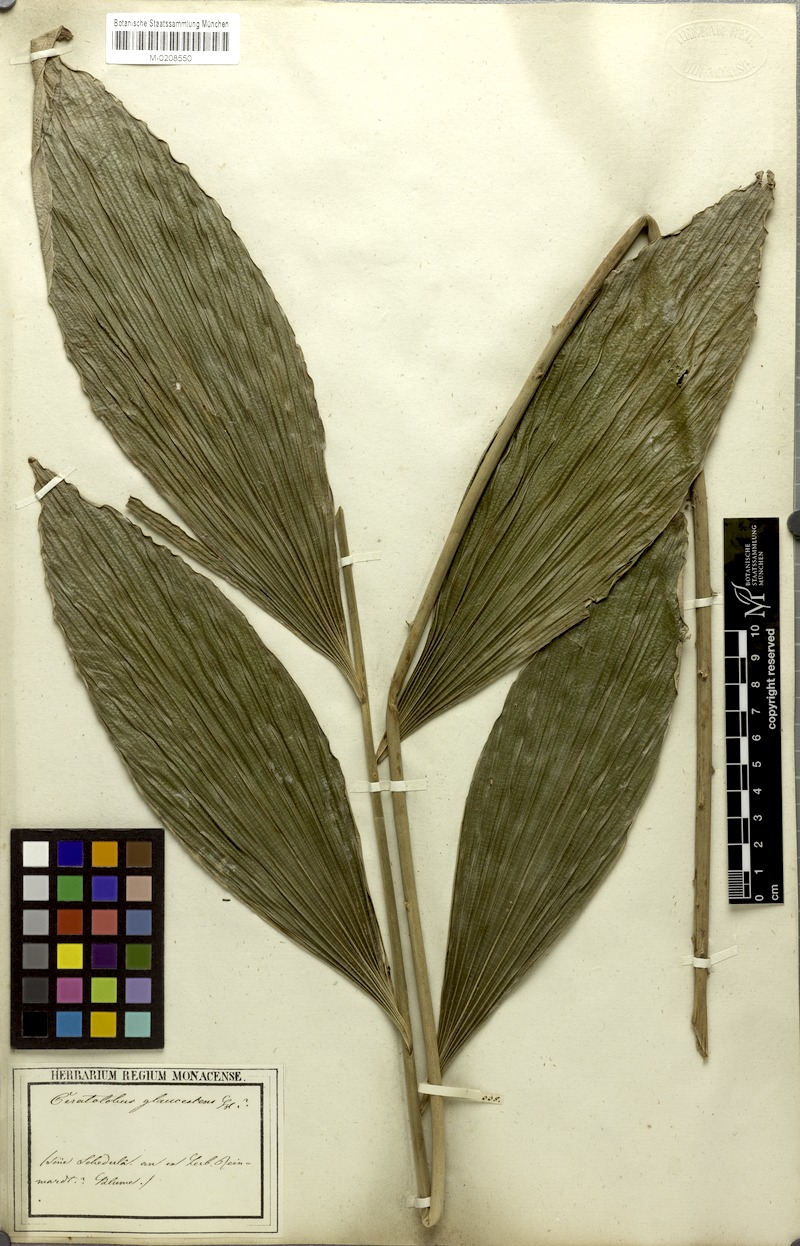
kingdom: Plantae
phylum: Tracheophyta
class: Liliopsida
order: Arecales
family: Arecaceae
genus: Calamus
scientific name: Calamus glaucescens
